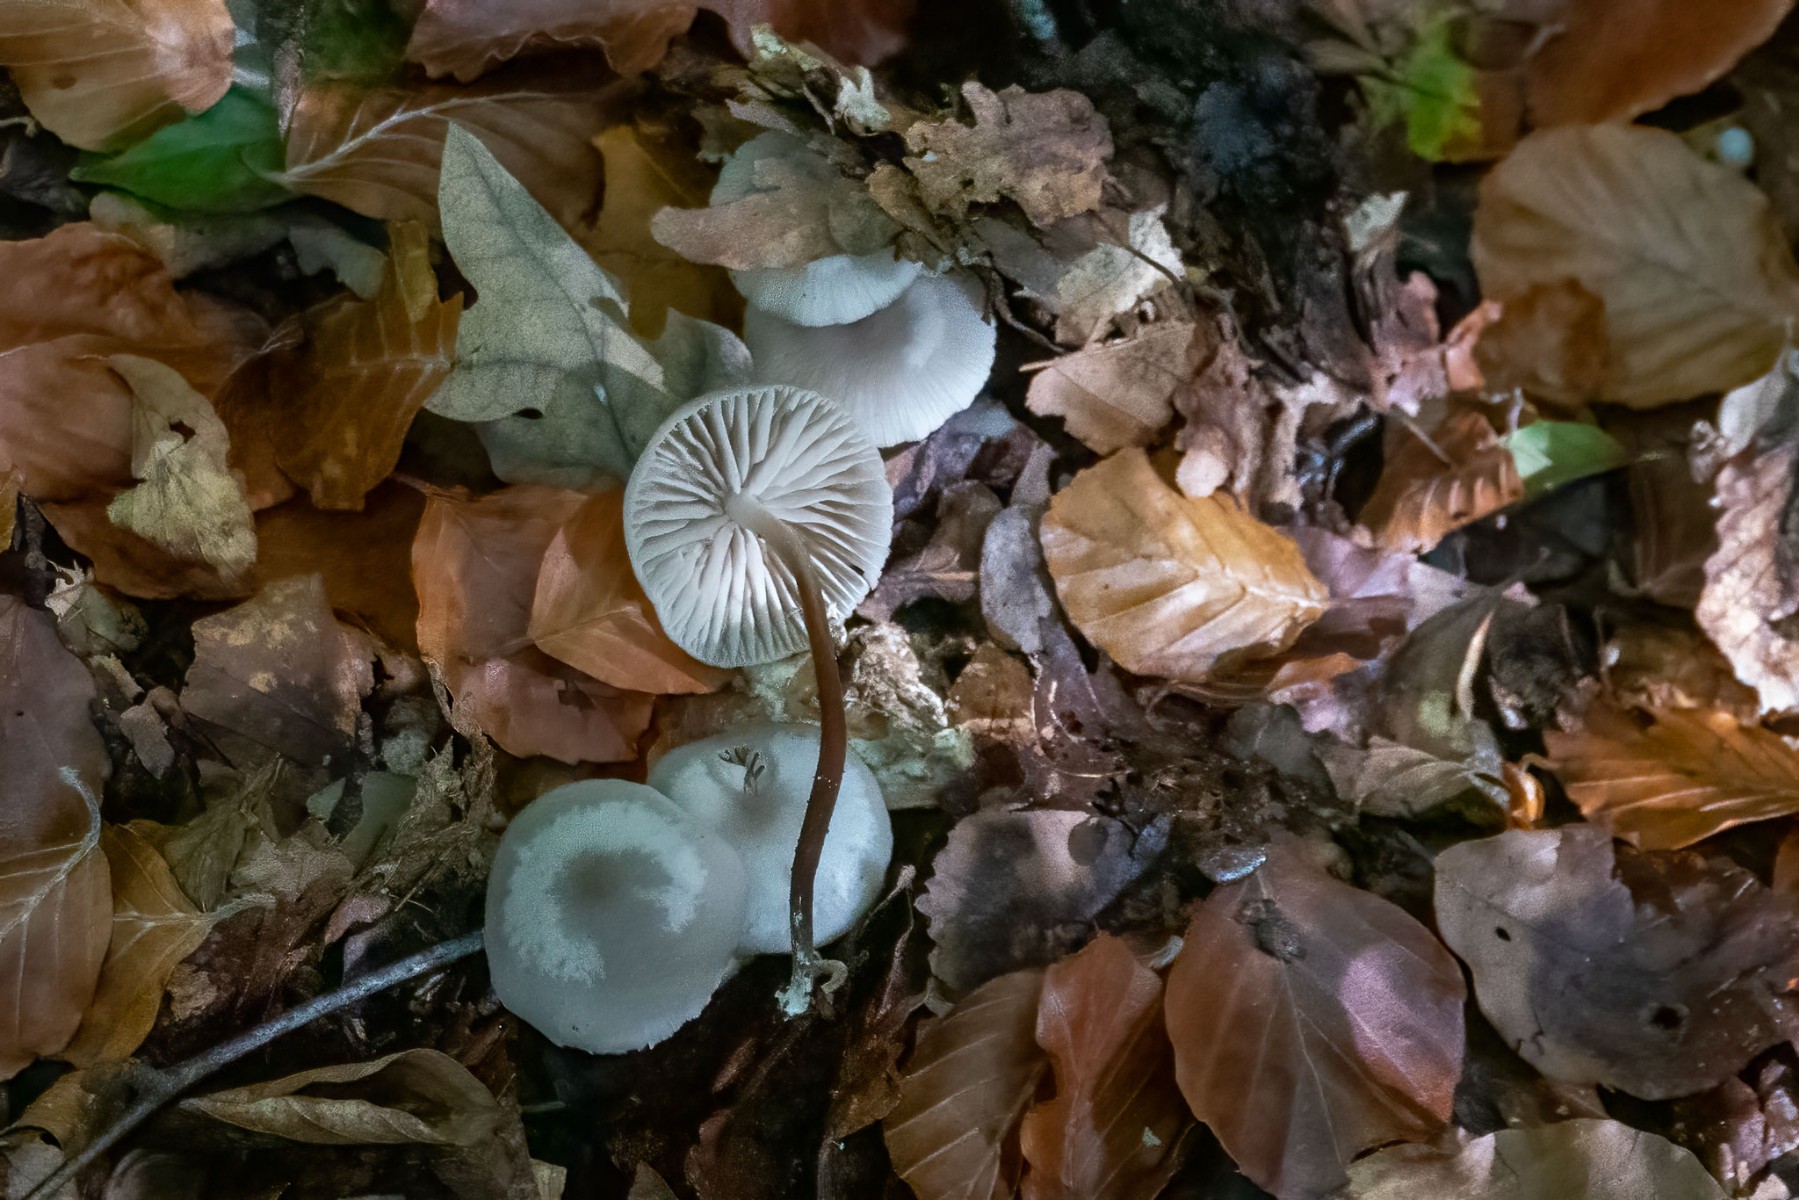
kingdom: Fungi
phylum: Basidiomycota
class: Agaricomycetes
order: Agaricales
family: Marasmiaceae
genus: Marasmius
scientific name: Marasmius wynneae
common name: hvælvet bruskhat
